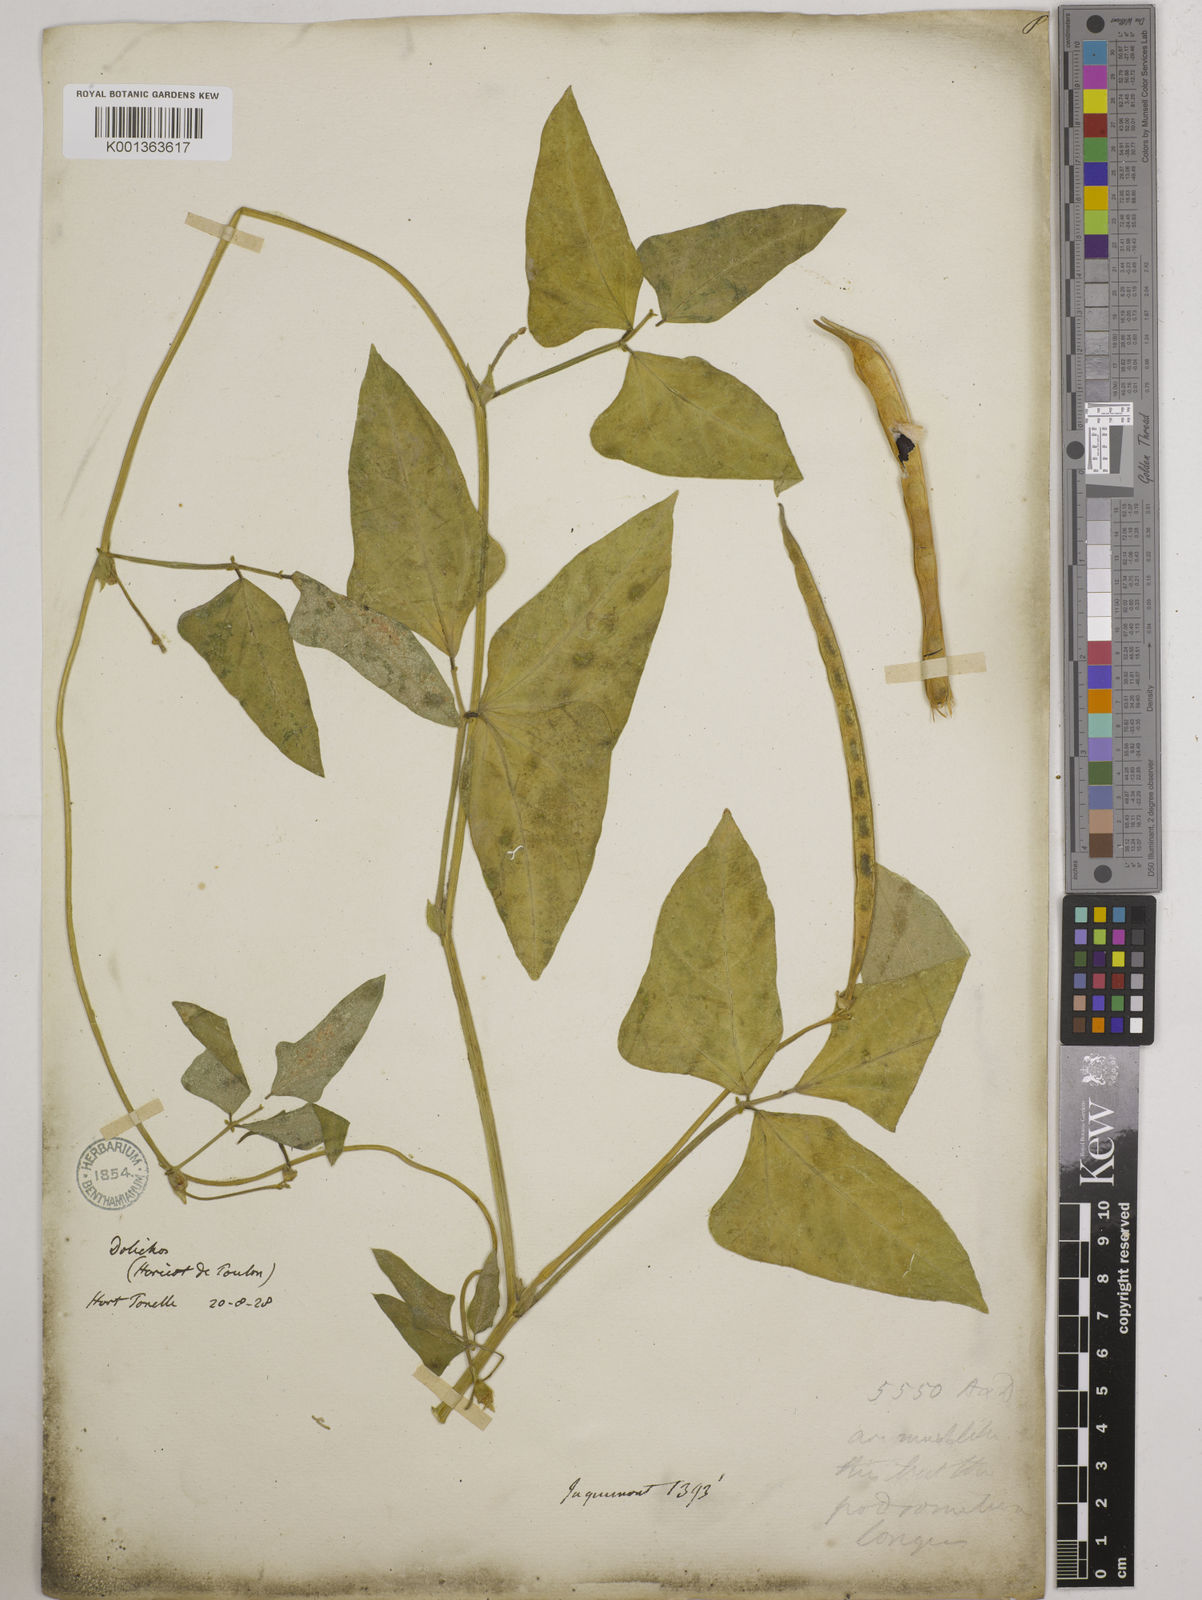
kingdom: Plantae
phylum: Tracheophyta
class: Magnoliopsida
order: Fabales
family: Fabaceae
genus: Vigna
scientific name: Vigna unguiculata
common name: Cowpea
